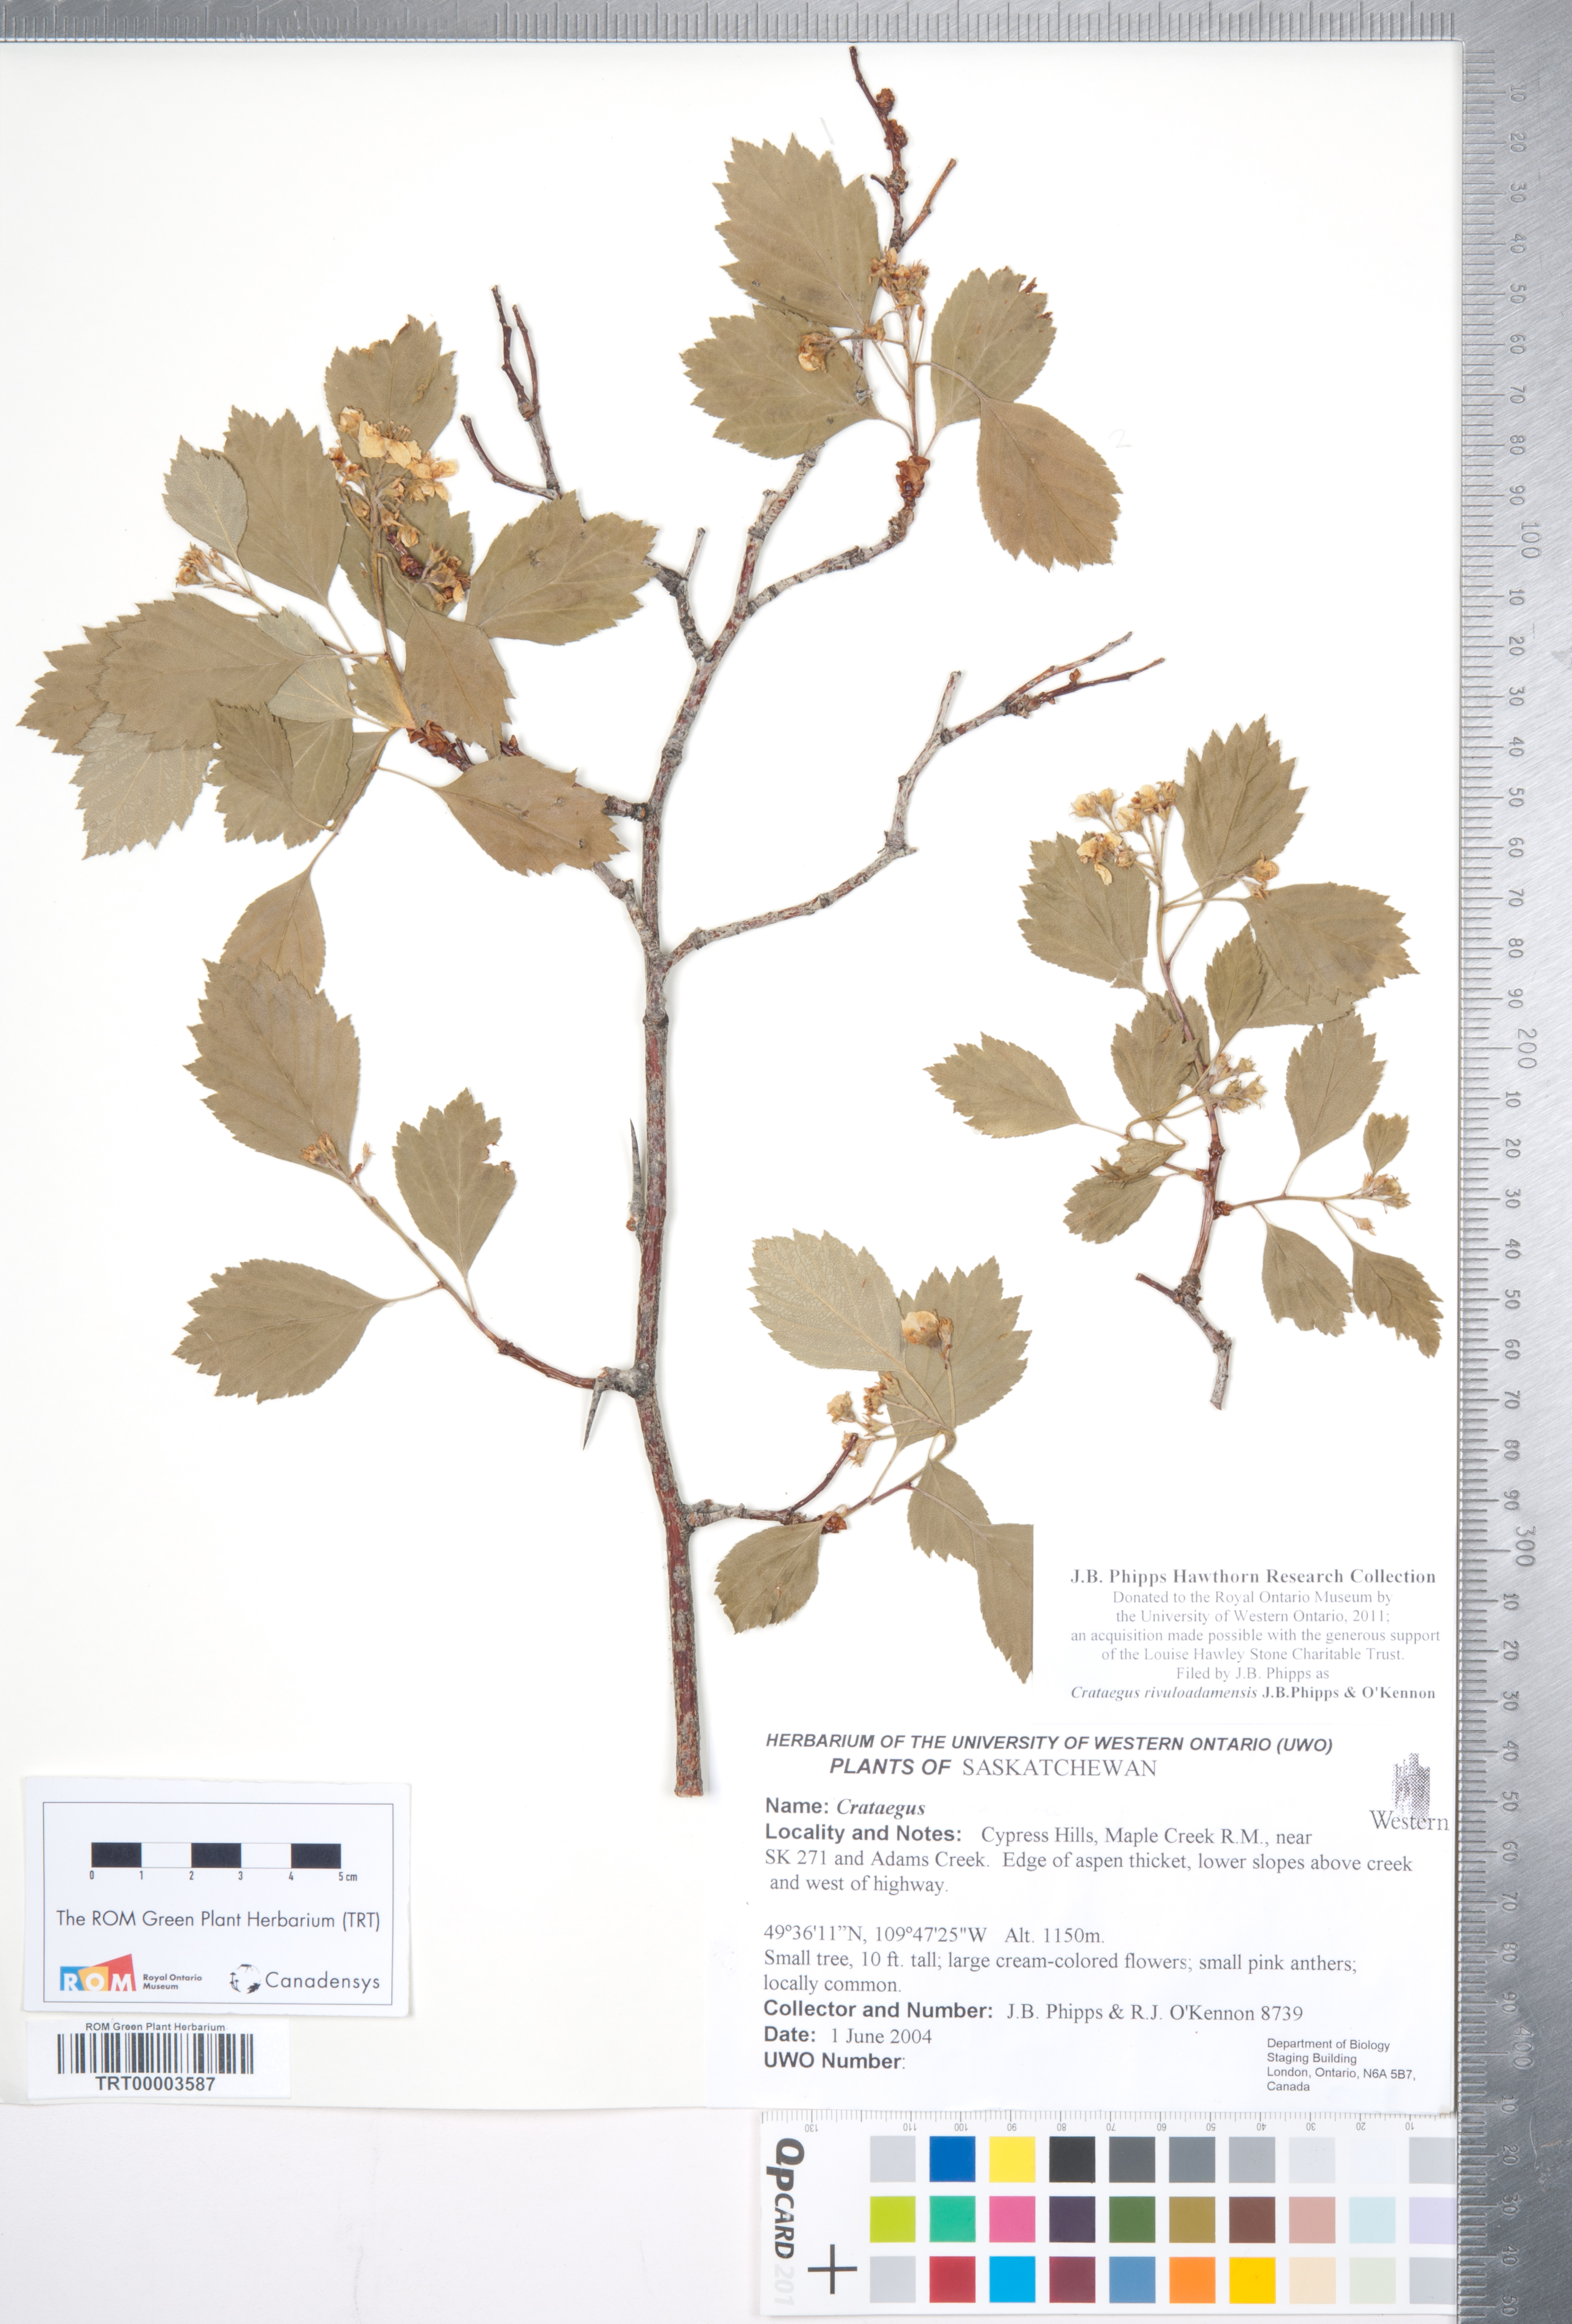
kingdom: Plantae
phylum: Tracheophyta
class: Magnoliopsida
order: Rosales
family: Rosaceae
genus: Crataegus
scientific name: Crataegus rivuloadamensis
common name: Adams creek hawthorn
